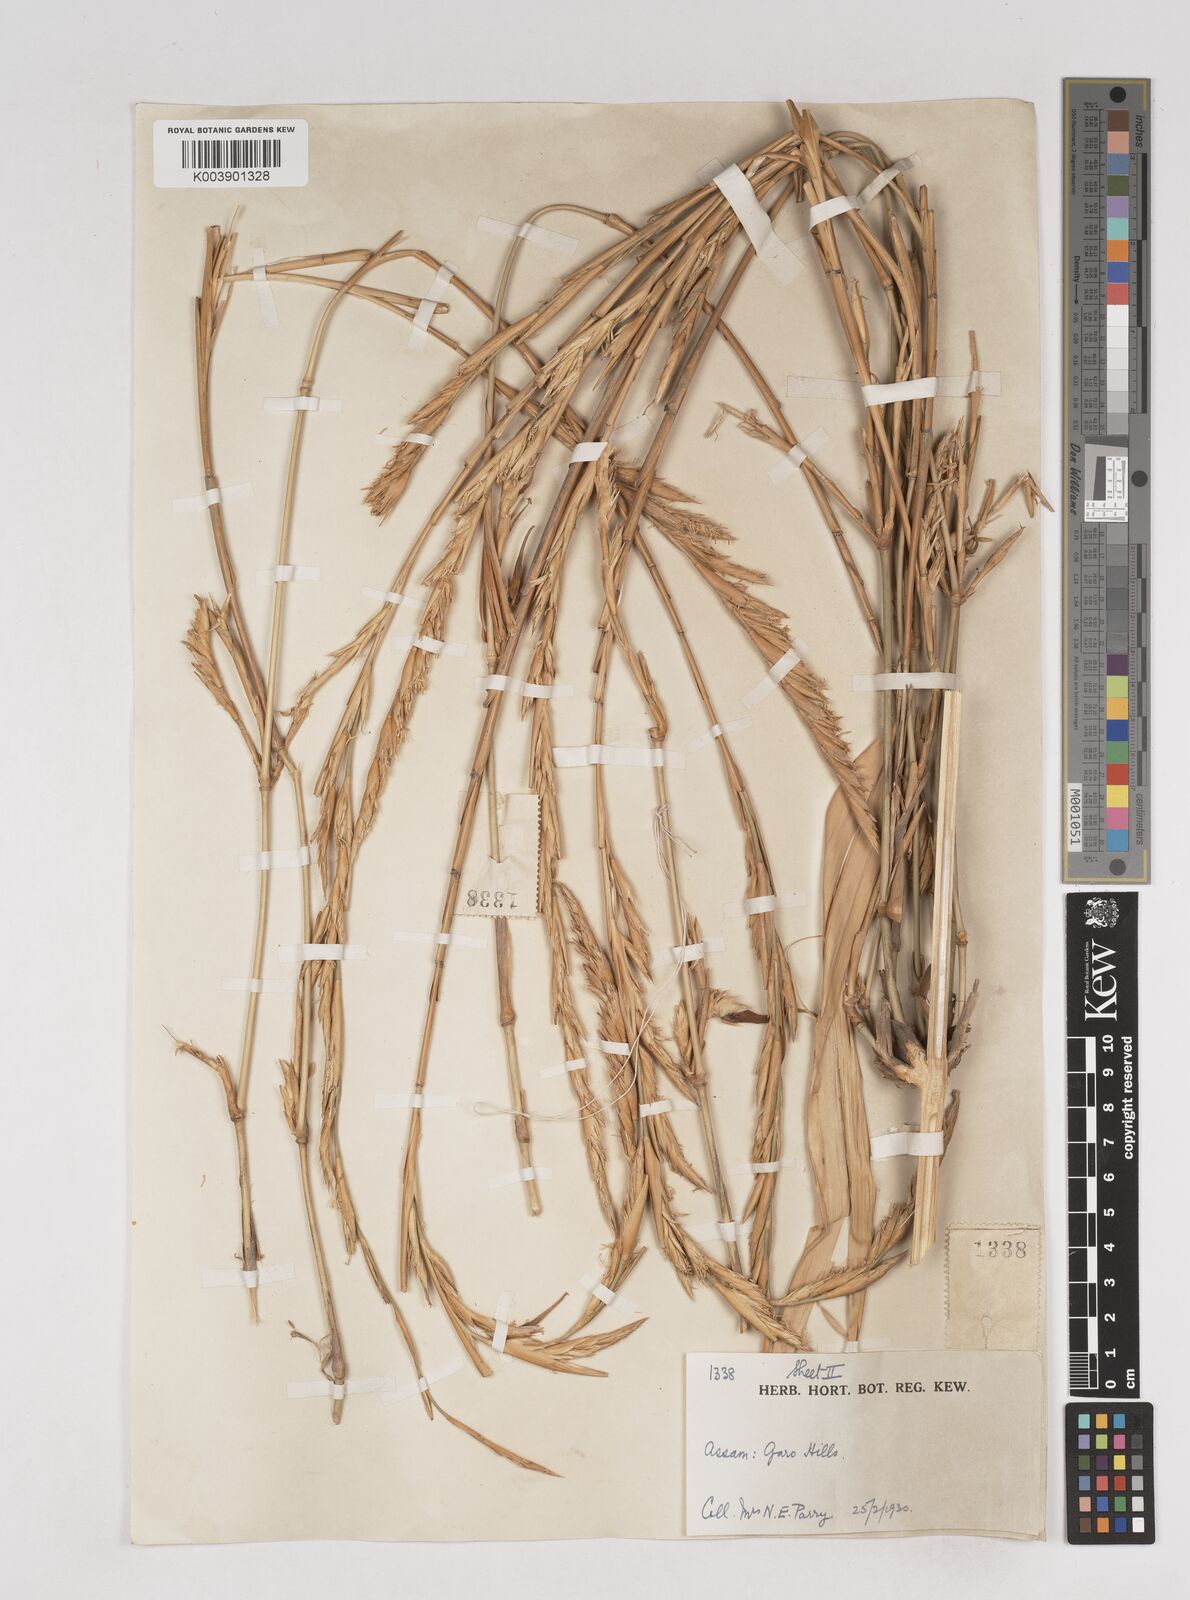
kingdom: Plantae
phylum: Tracheophyta
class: Liliopsida
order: Poales
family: Poaceae
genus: Melocanna
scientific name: Melocanna
